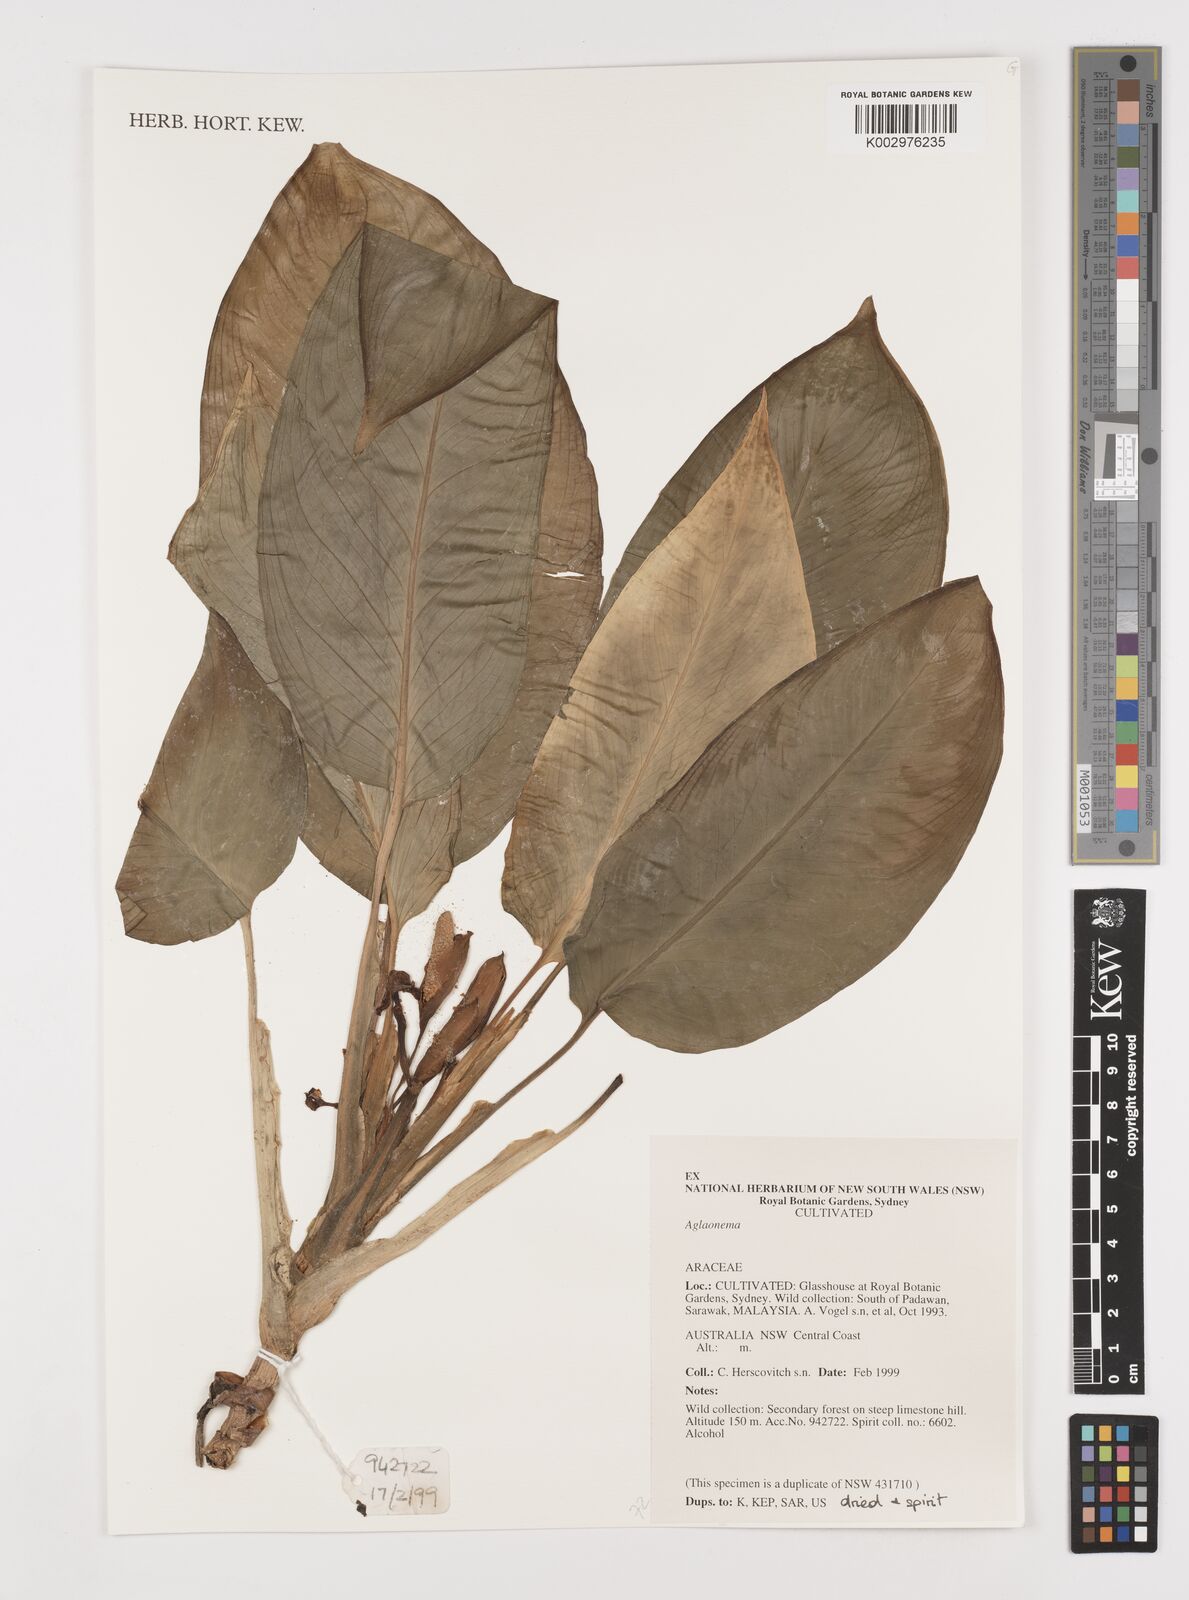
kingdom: Plantae
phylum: Tracheophyta
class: Liliopsida
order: Alismatales
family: Araceae
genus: Aglaonema
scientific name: Aglaonema
